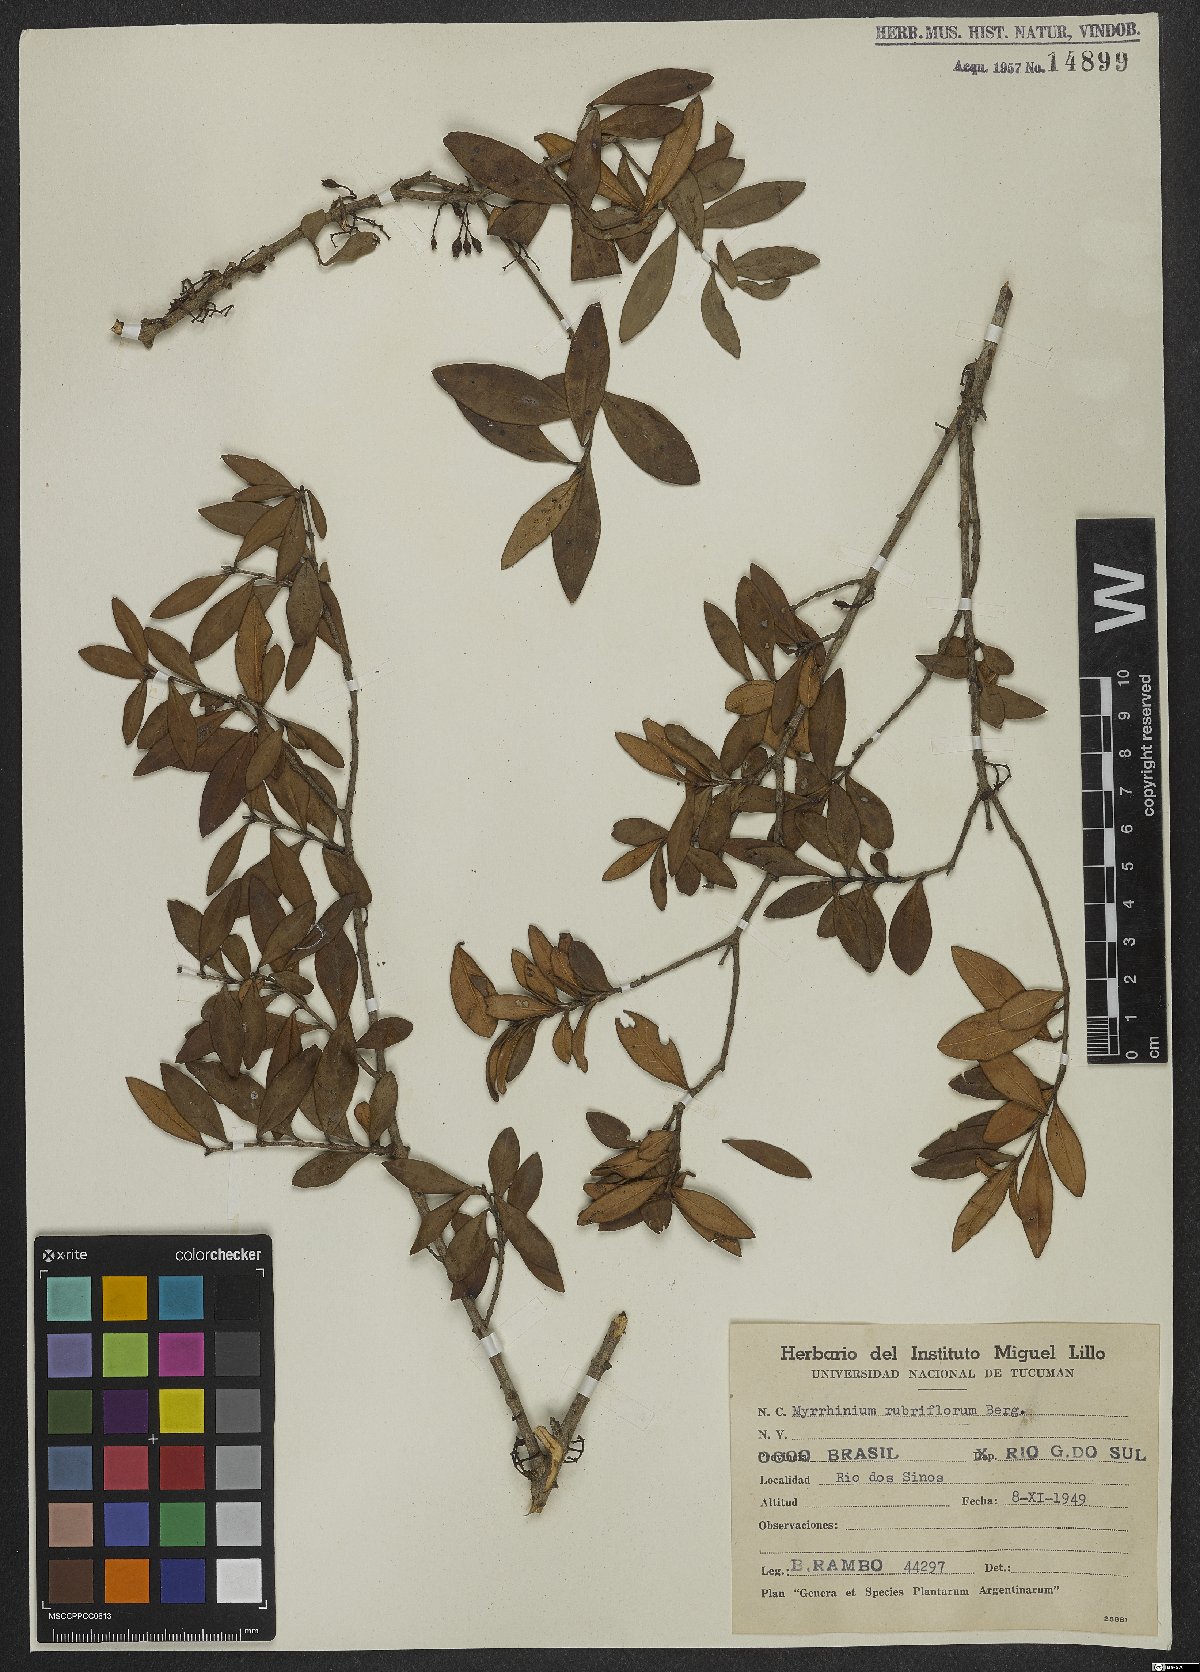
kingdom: Plantae
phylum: Tracheophyta
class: Magnoliopsida
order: Myrtales
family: Myrtaceae
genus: Myrrhinium
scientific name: Myrrhinium atropurpureum
